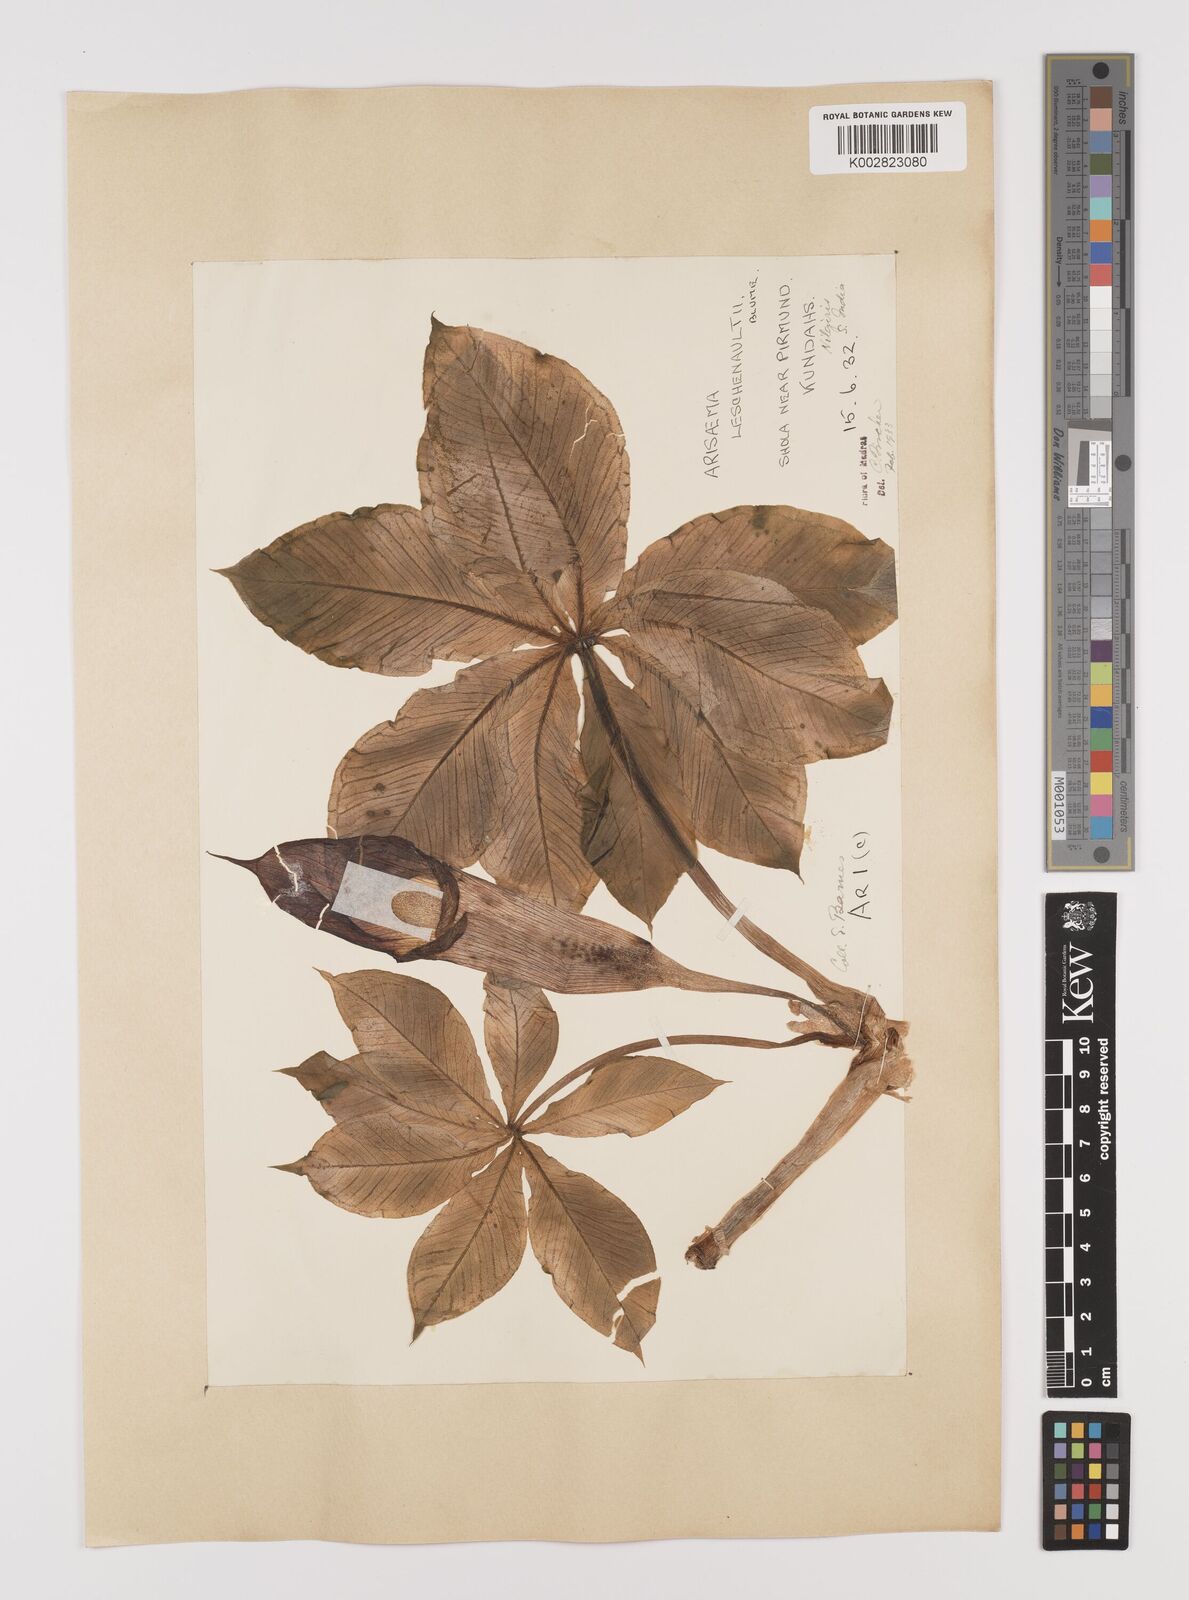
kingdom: Plantae
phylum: Tracheophyta
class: Liliopsida
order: Alismatales
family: Araceae
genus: Arisaema
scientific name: Arisaema leschenaultii
